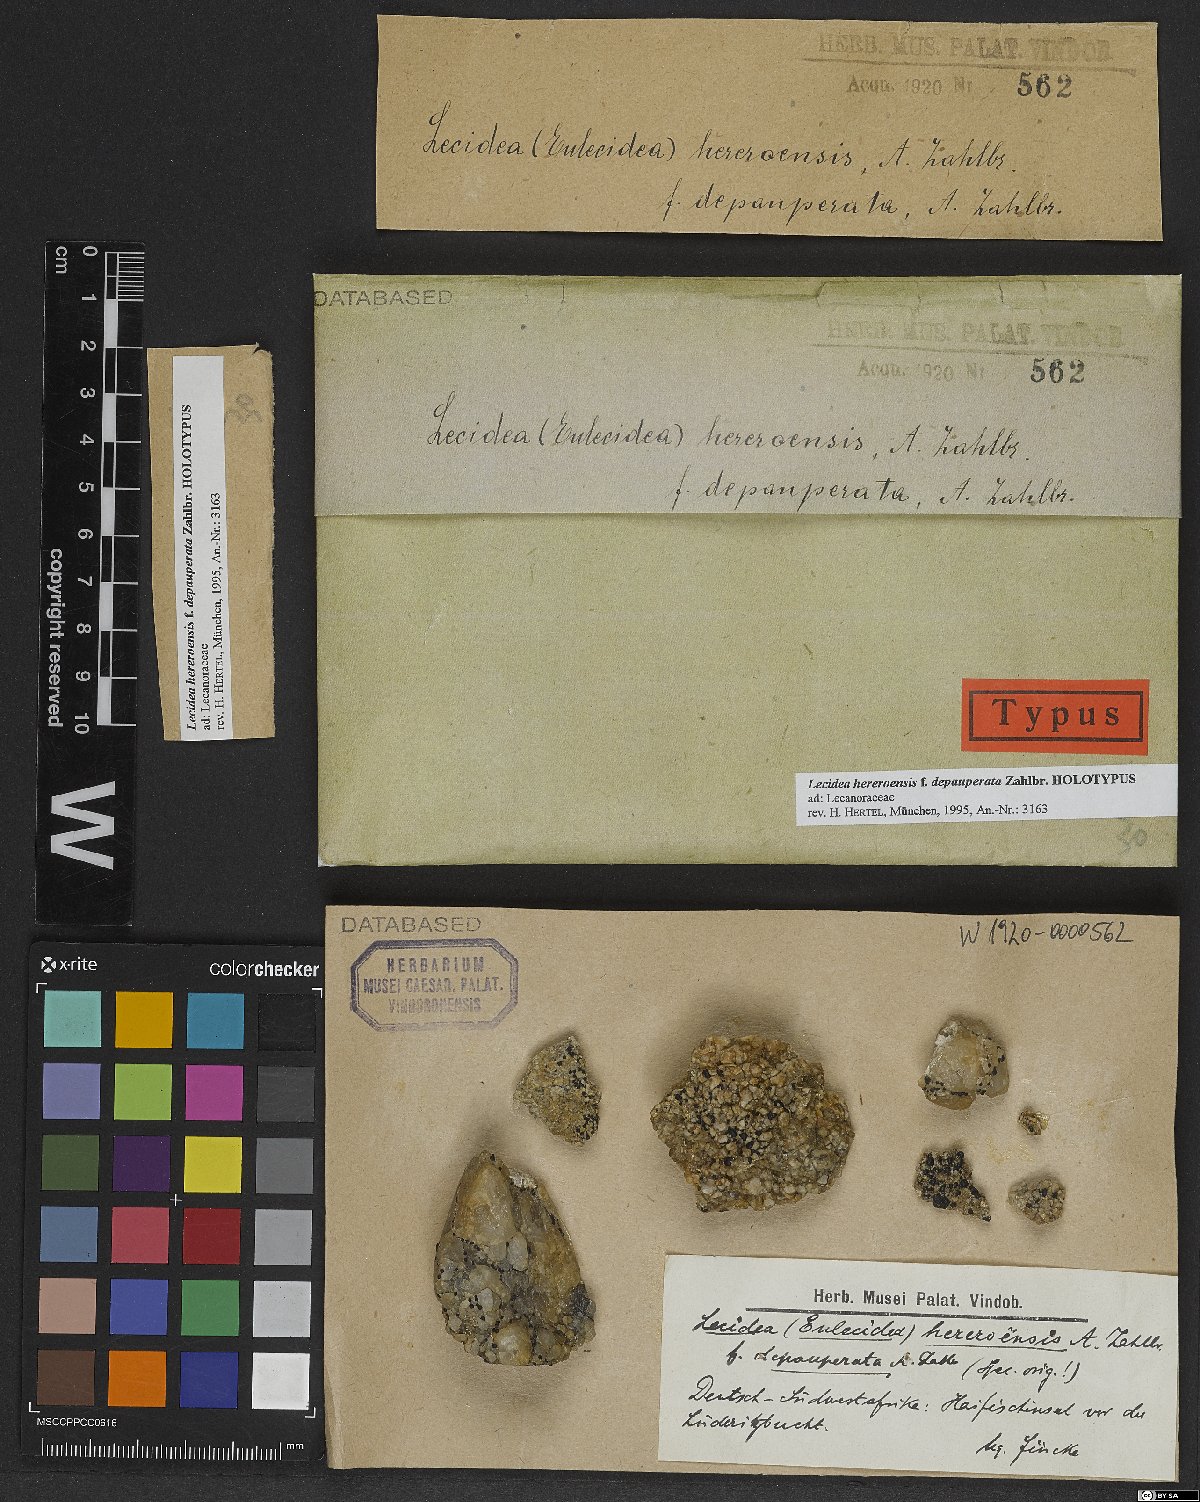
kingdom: Fungi
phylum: Ascomycota
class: Lecanoromycetes
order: Lecideales
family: Lecideaceae
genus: Lecidea
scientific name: Lecidea
